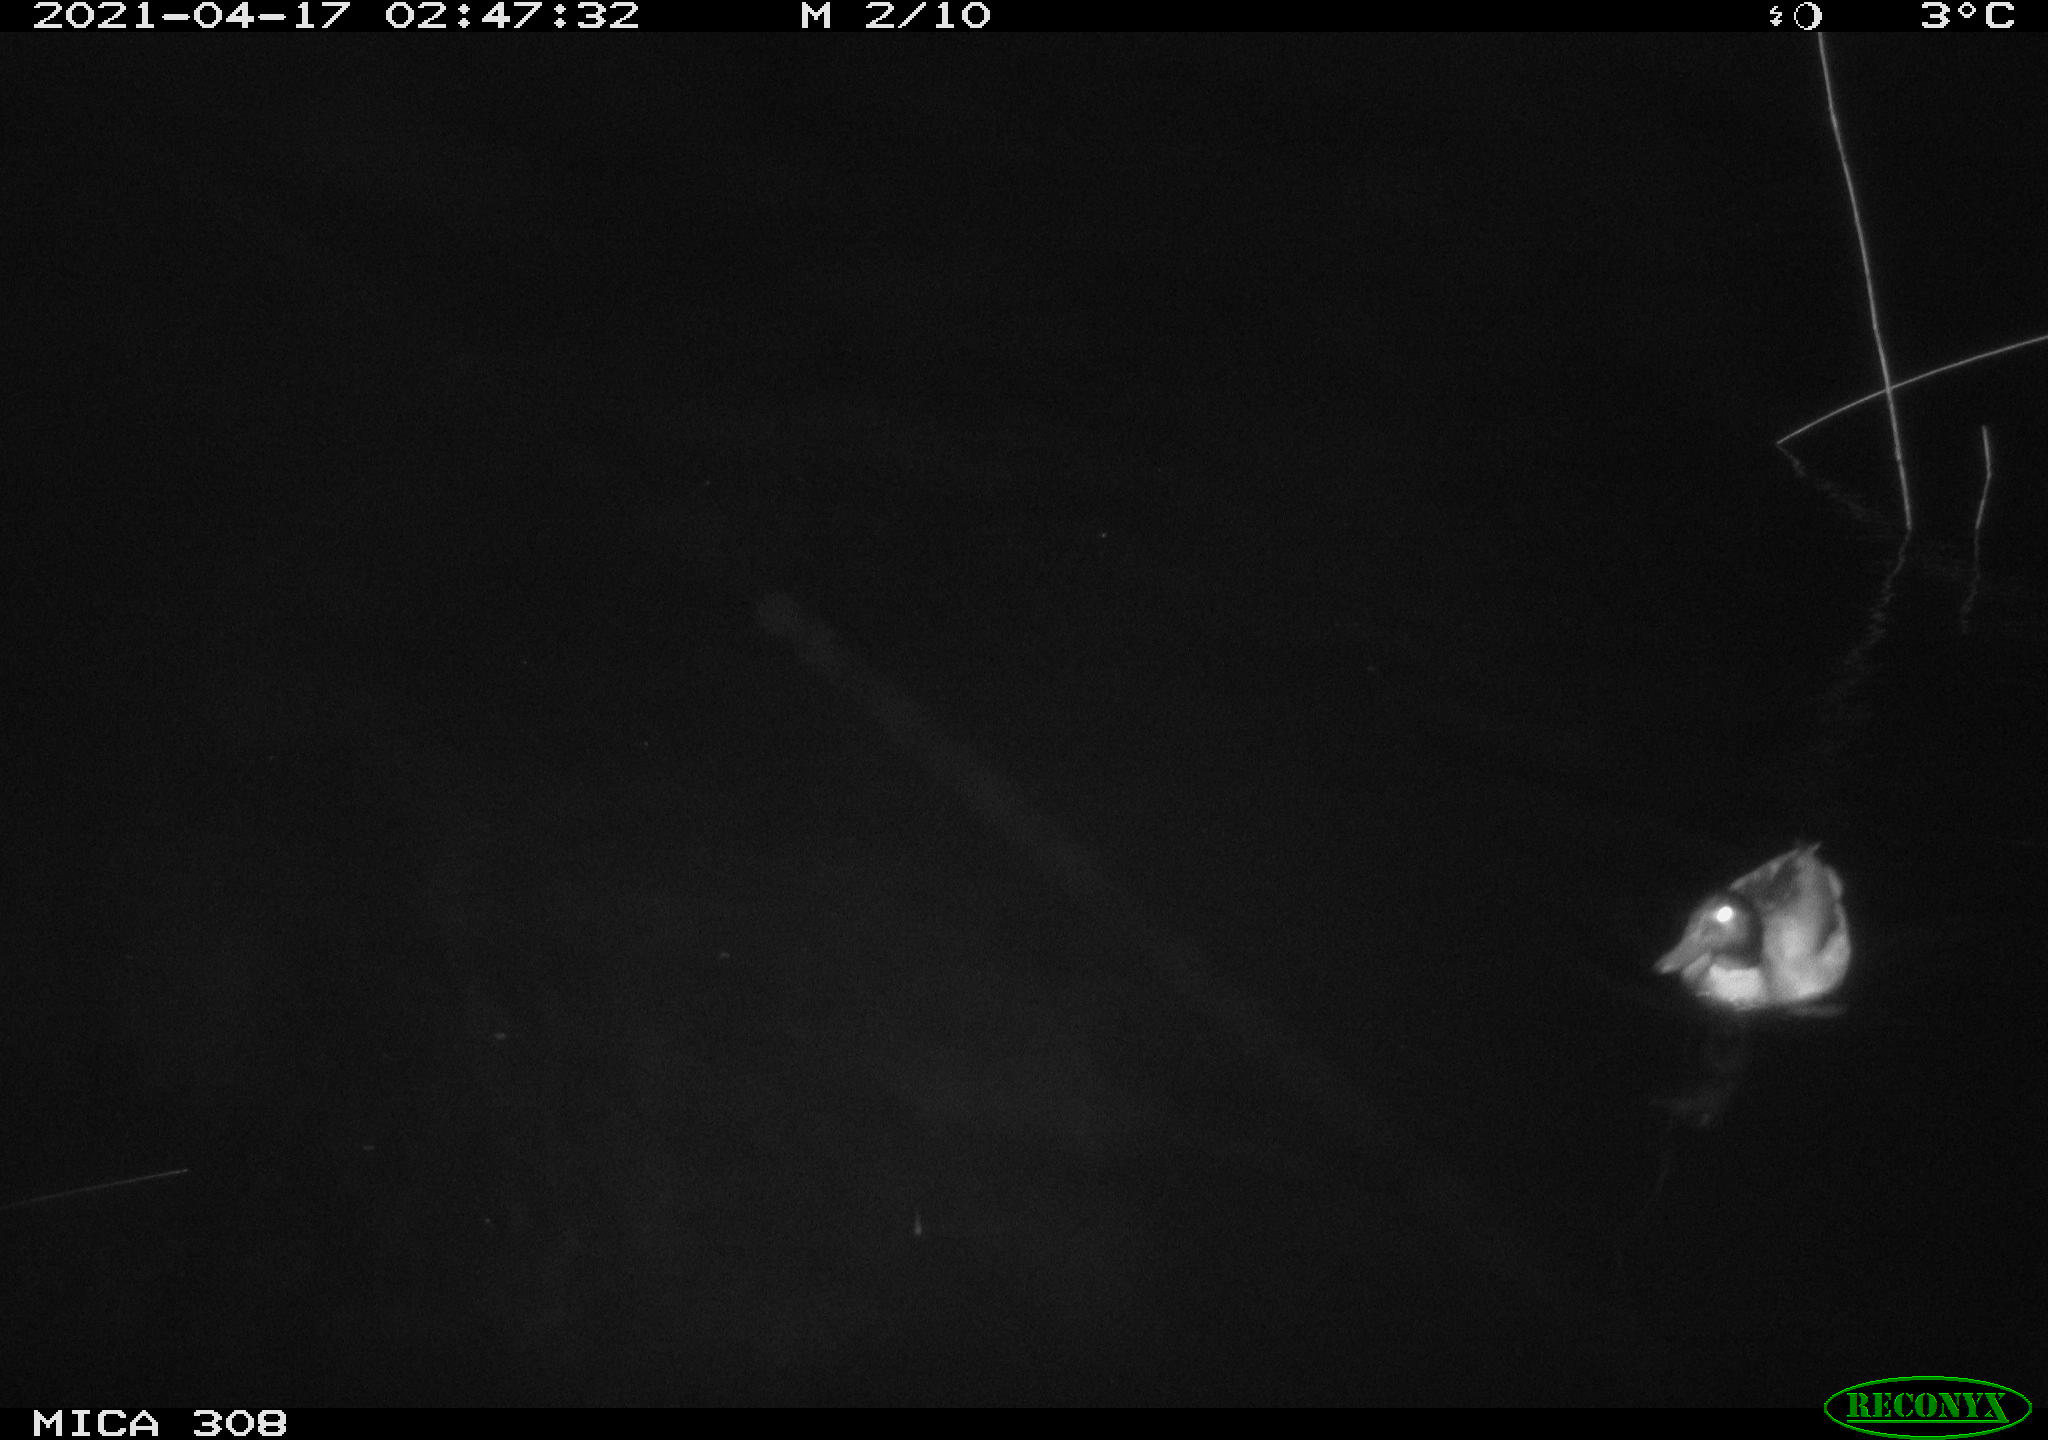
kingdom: Animalia
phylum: Chordata
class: Aves
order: Anseriformes
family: Anatidae
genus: Anas
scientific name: Anas platyrhynchos
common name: Mallard
